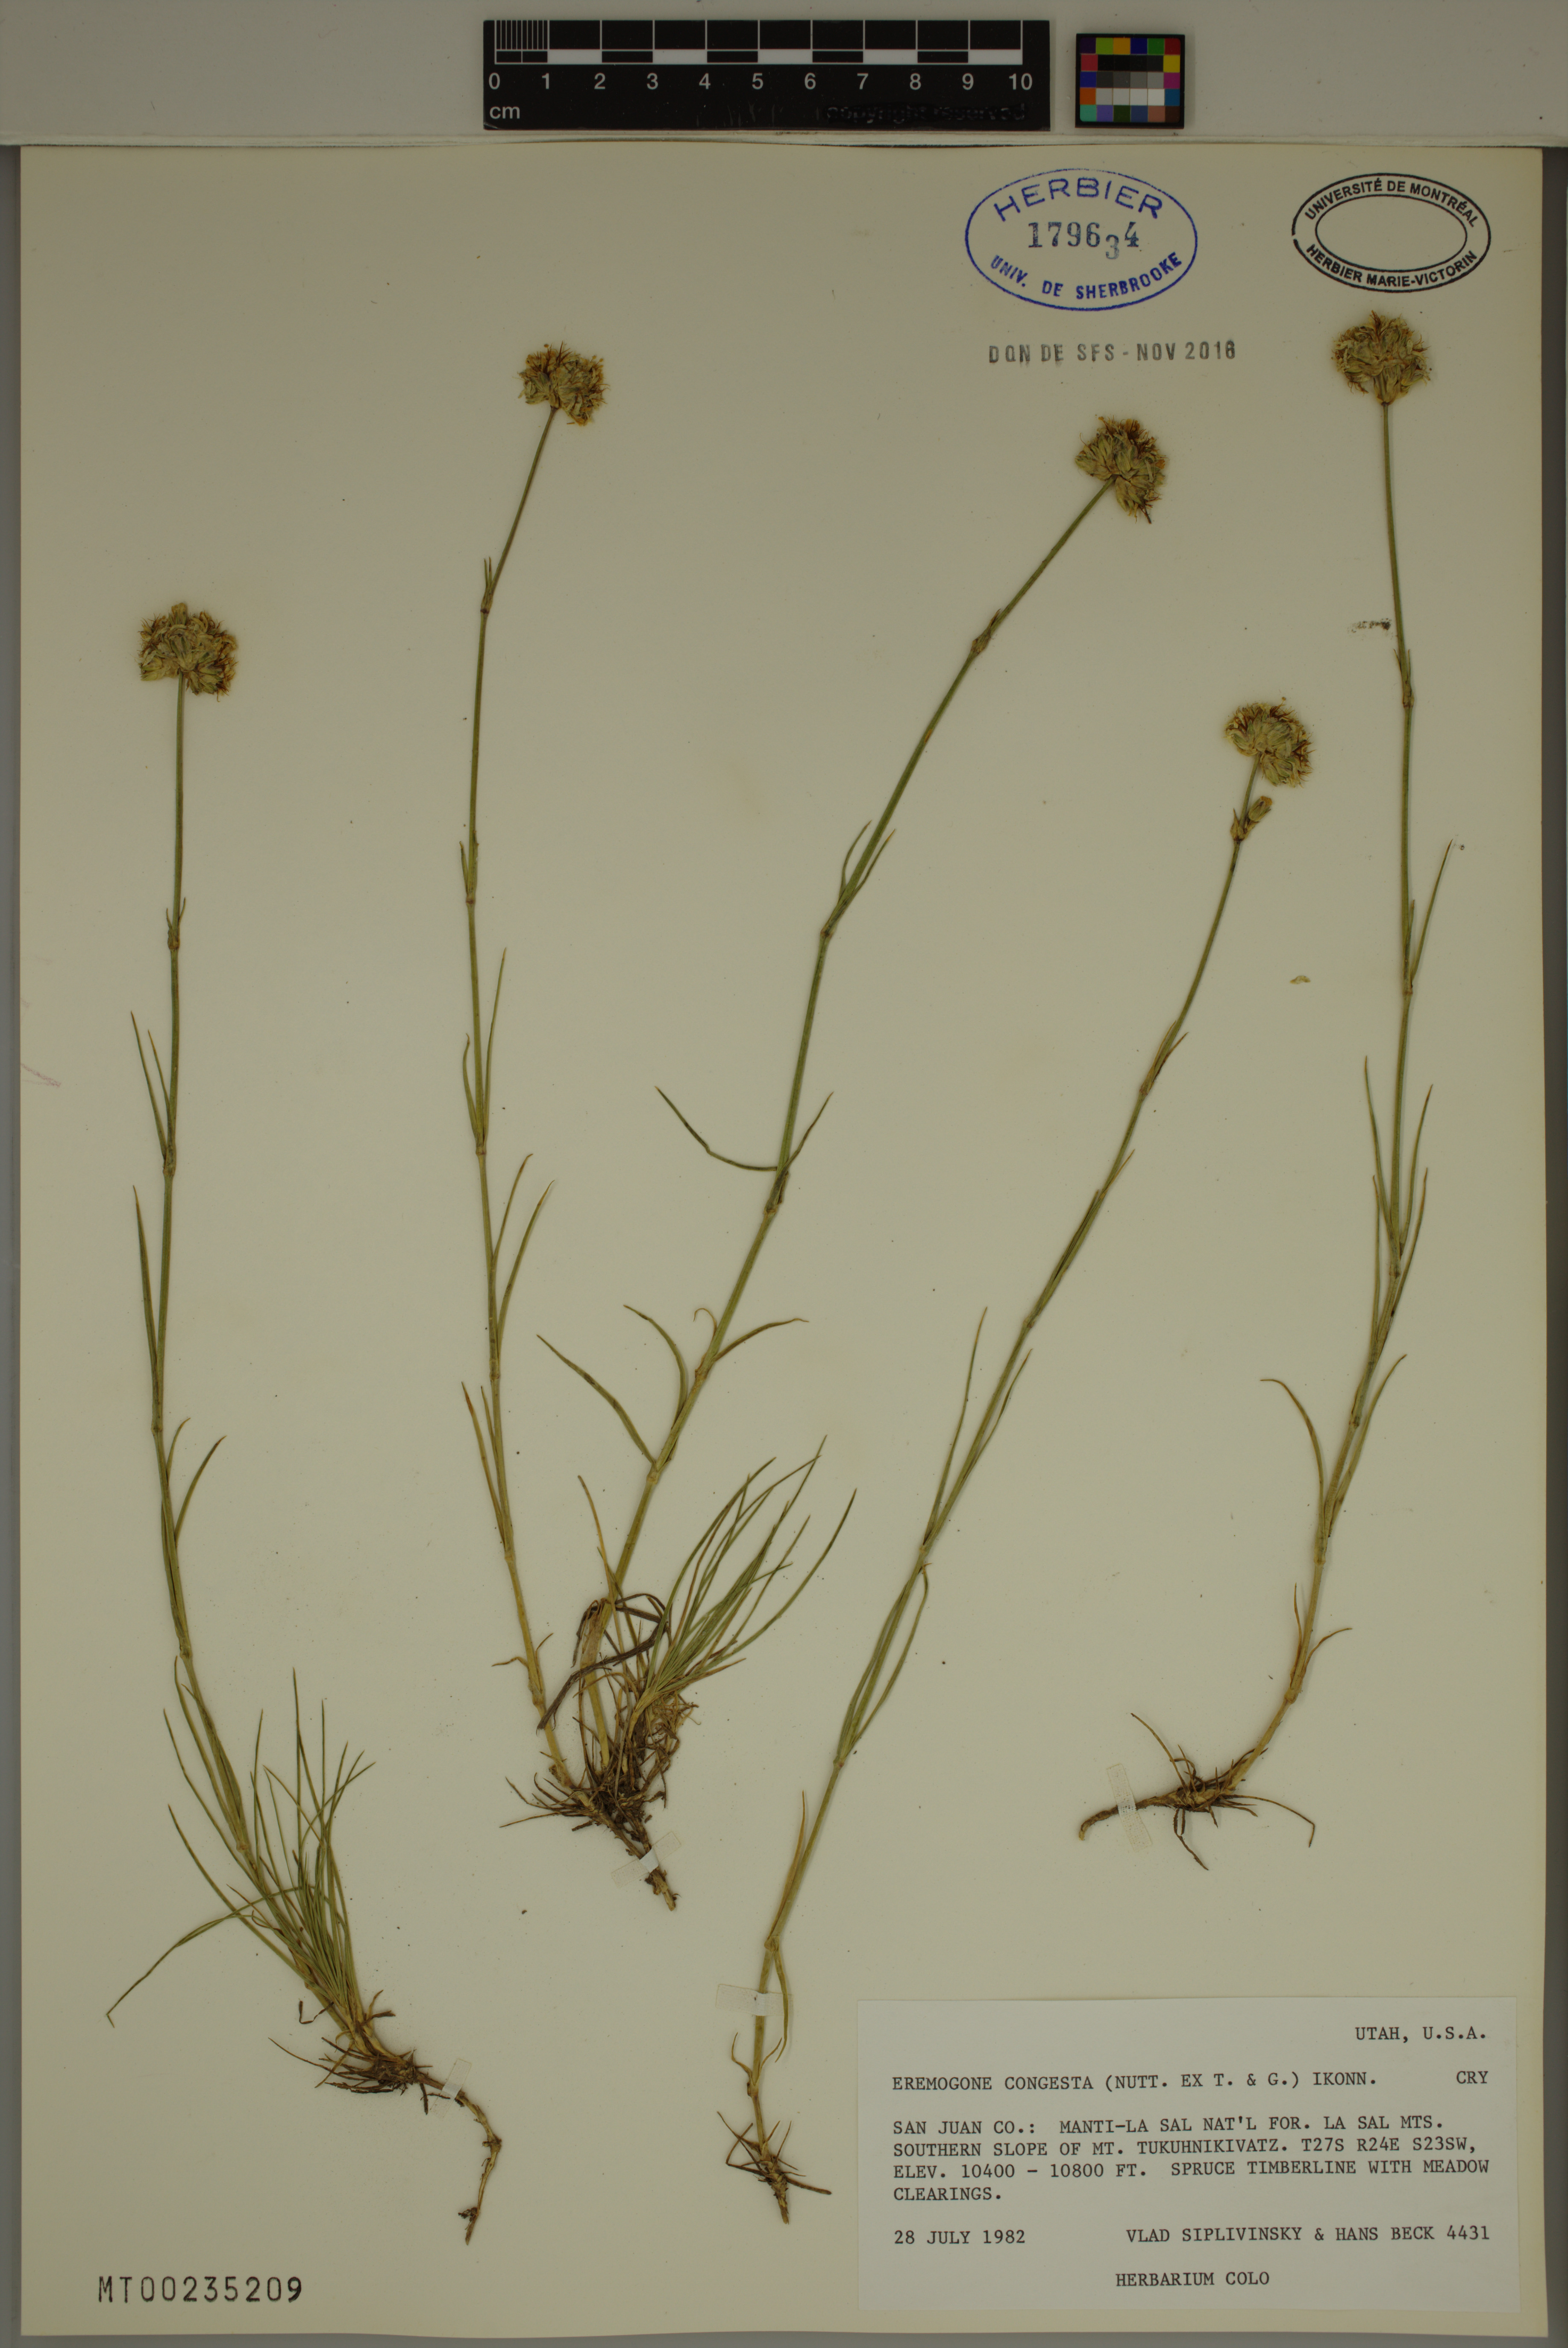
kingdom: Plantae
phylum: Tracheophyta
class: Magnoliopsida
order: Caryophyllales
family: Caryophyllaceae
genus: Eremogone
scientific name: Eremogone congesta
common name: Ballhead sandwort
